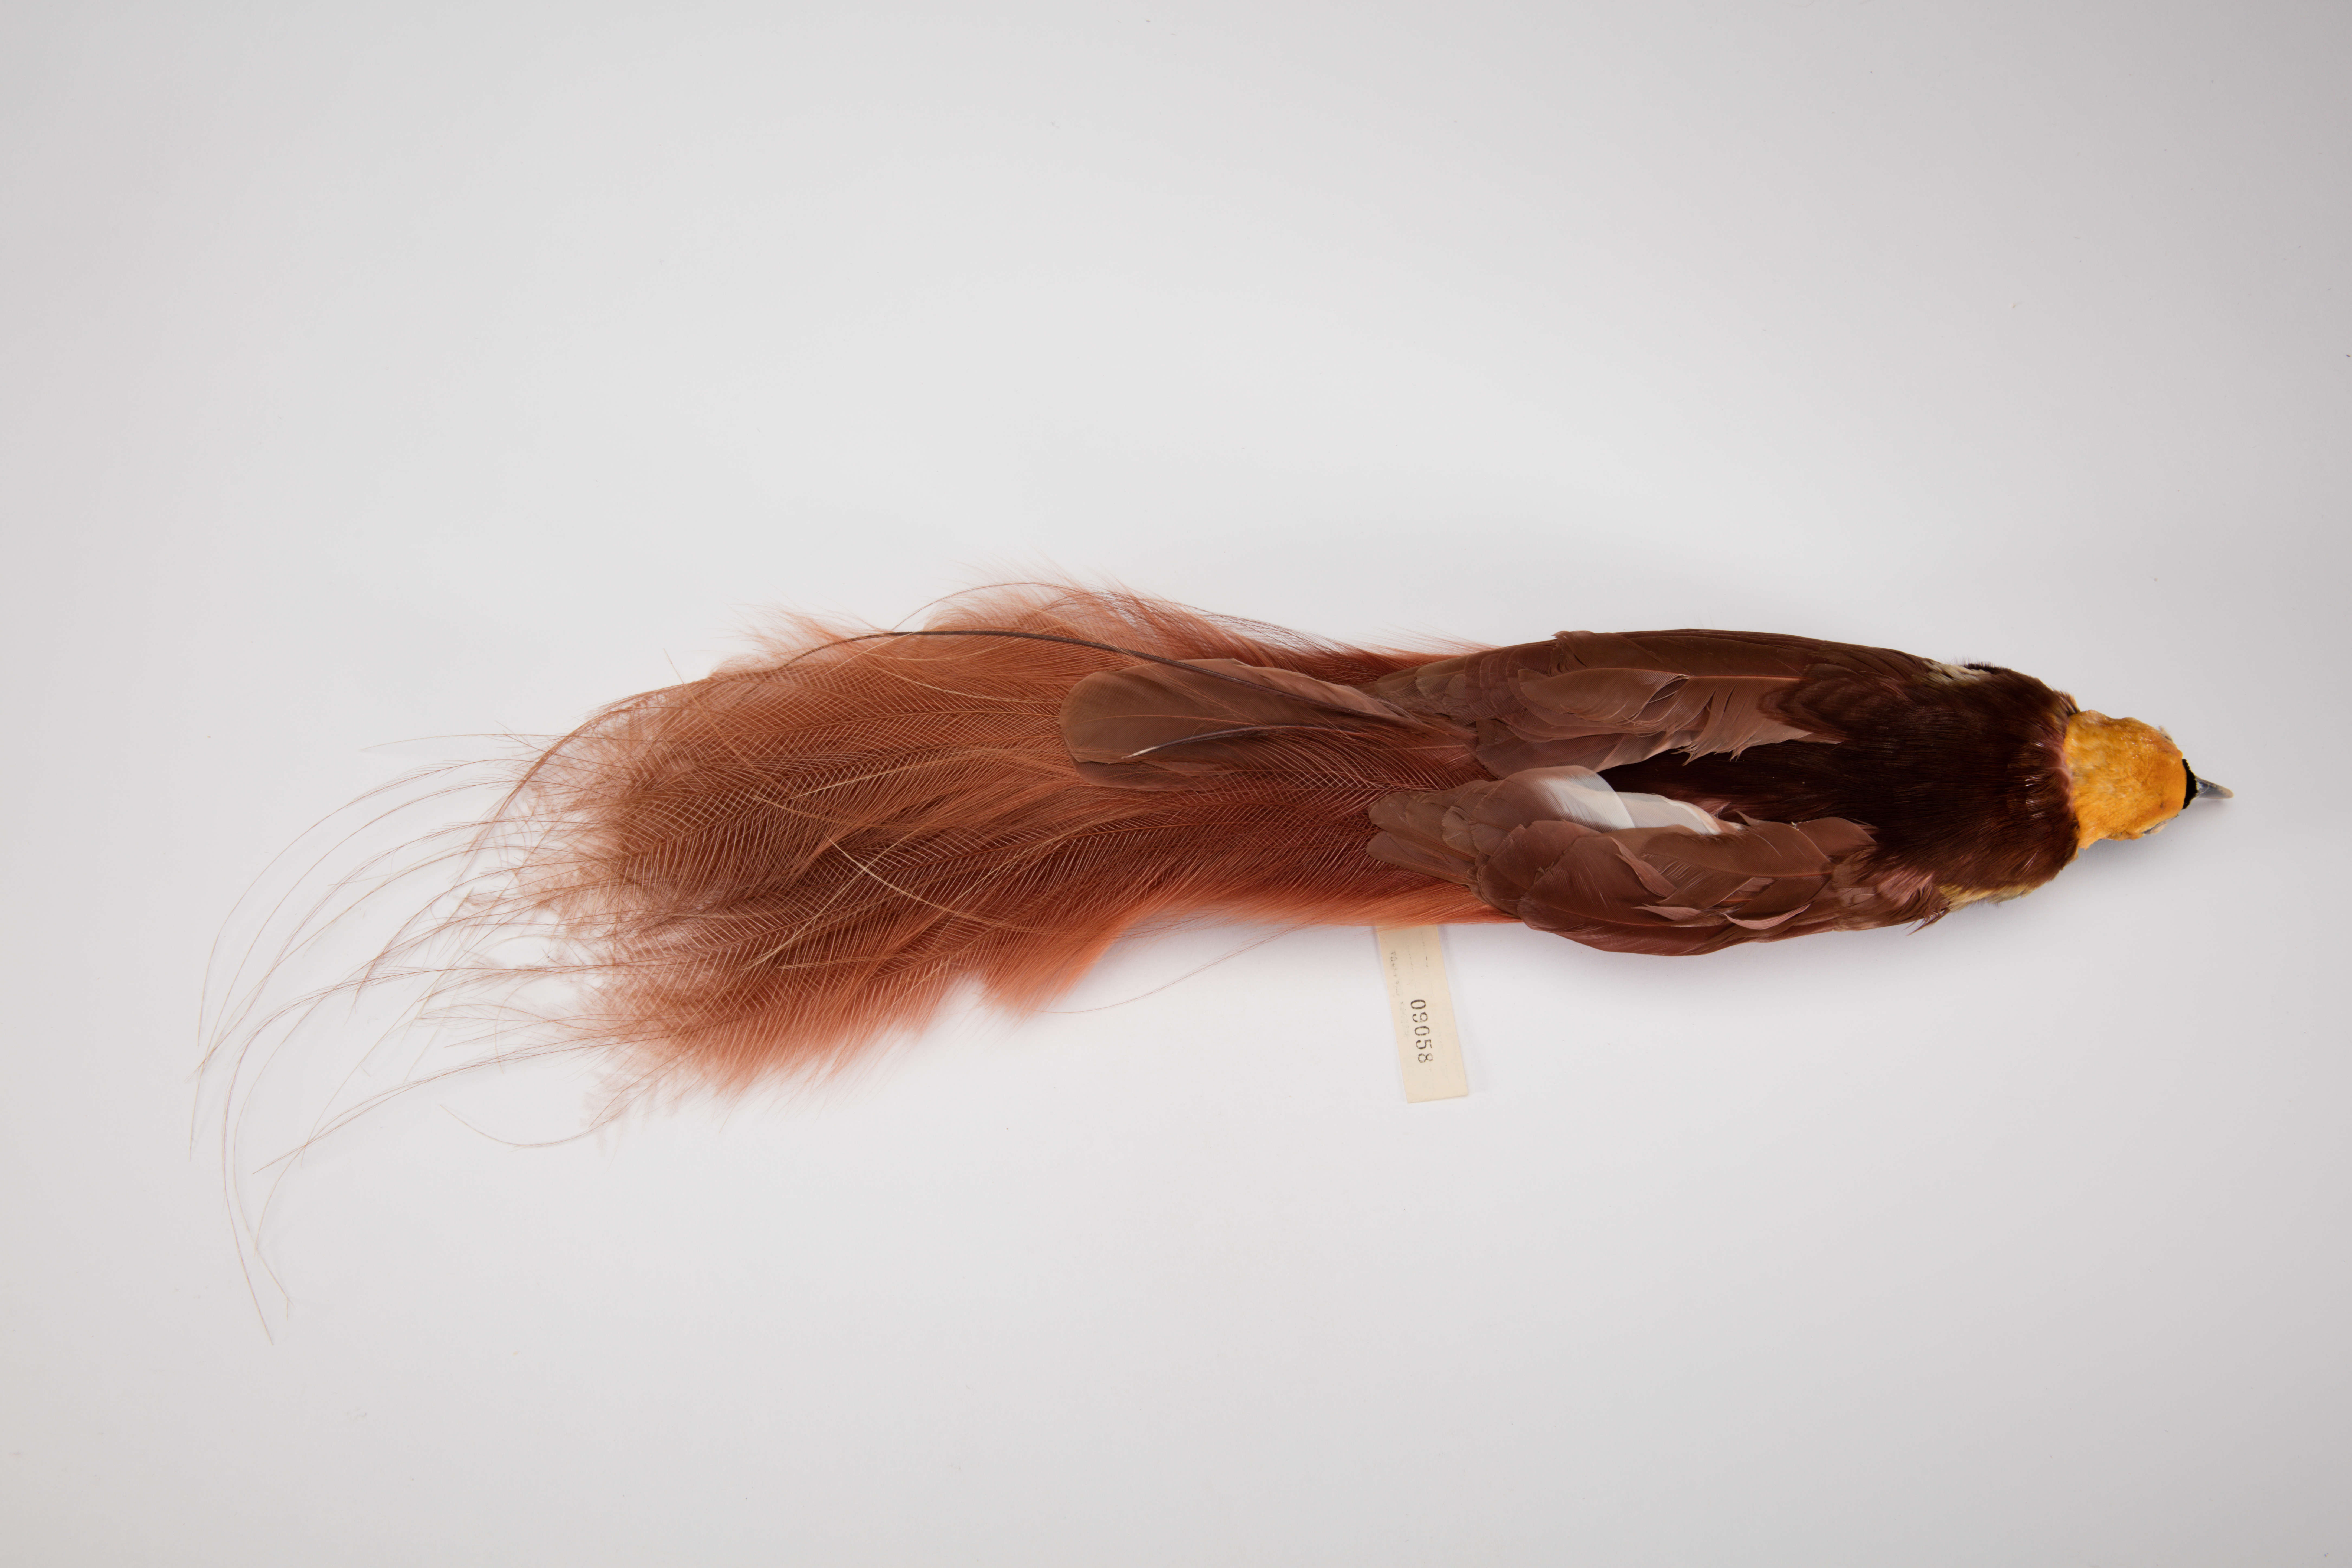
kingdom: Animalia
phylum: Chordata
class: Aves
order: Passeriformes
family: Paradisaeidae
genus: Paradisaea
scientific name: Paradisaea raggiana
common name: Raggiana bird-of-paradise
